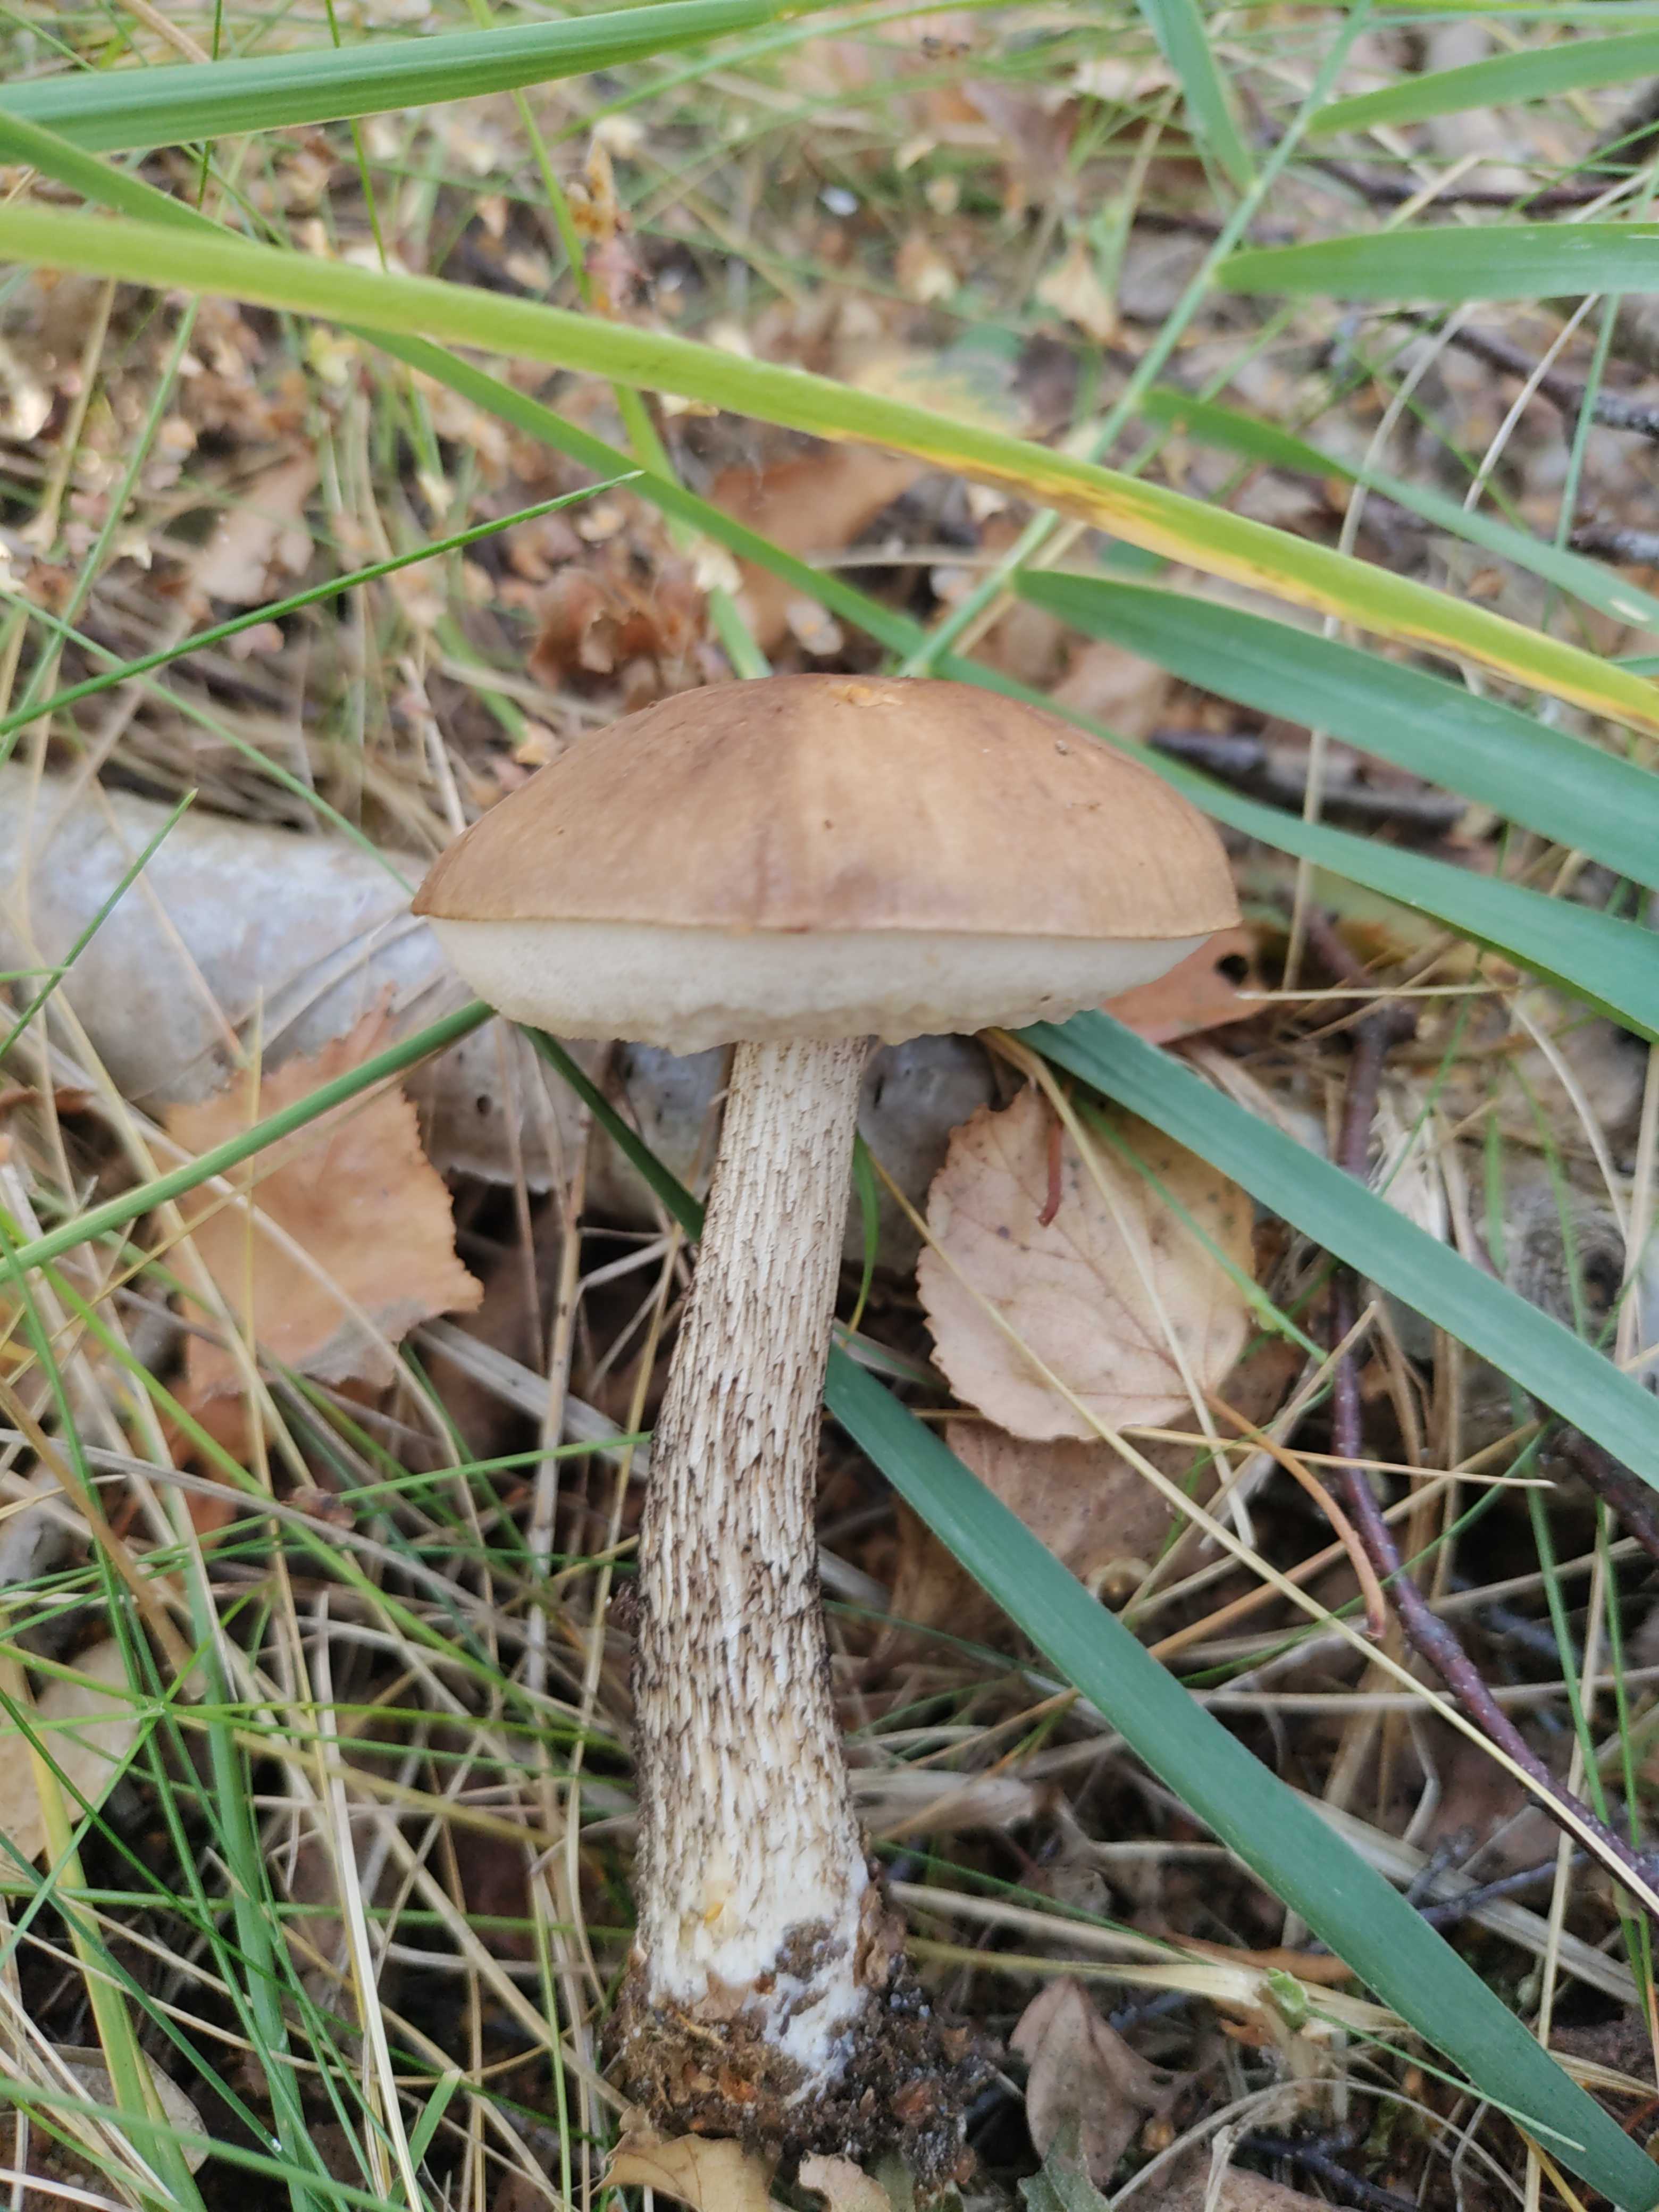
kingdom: Fungi
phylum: Basidiomycota
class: Agaricomycetes
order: Boletales
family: Boletaceae
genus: Leccinum
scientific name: Leccinum scabrum
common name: brun skælrørhat
